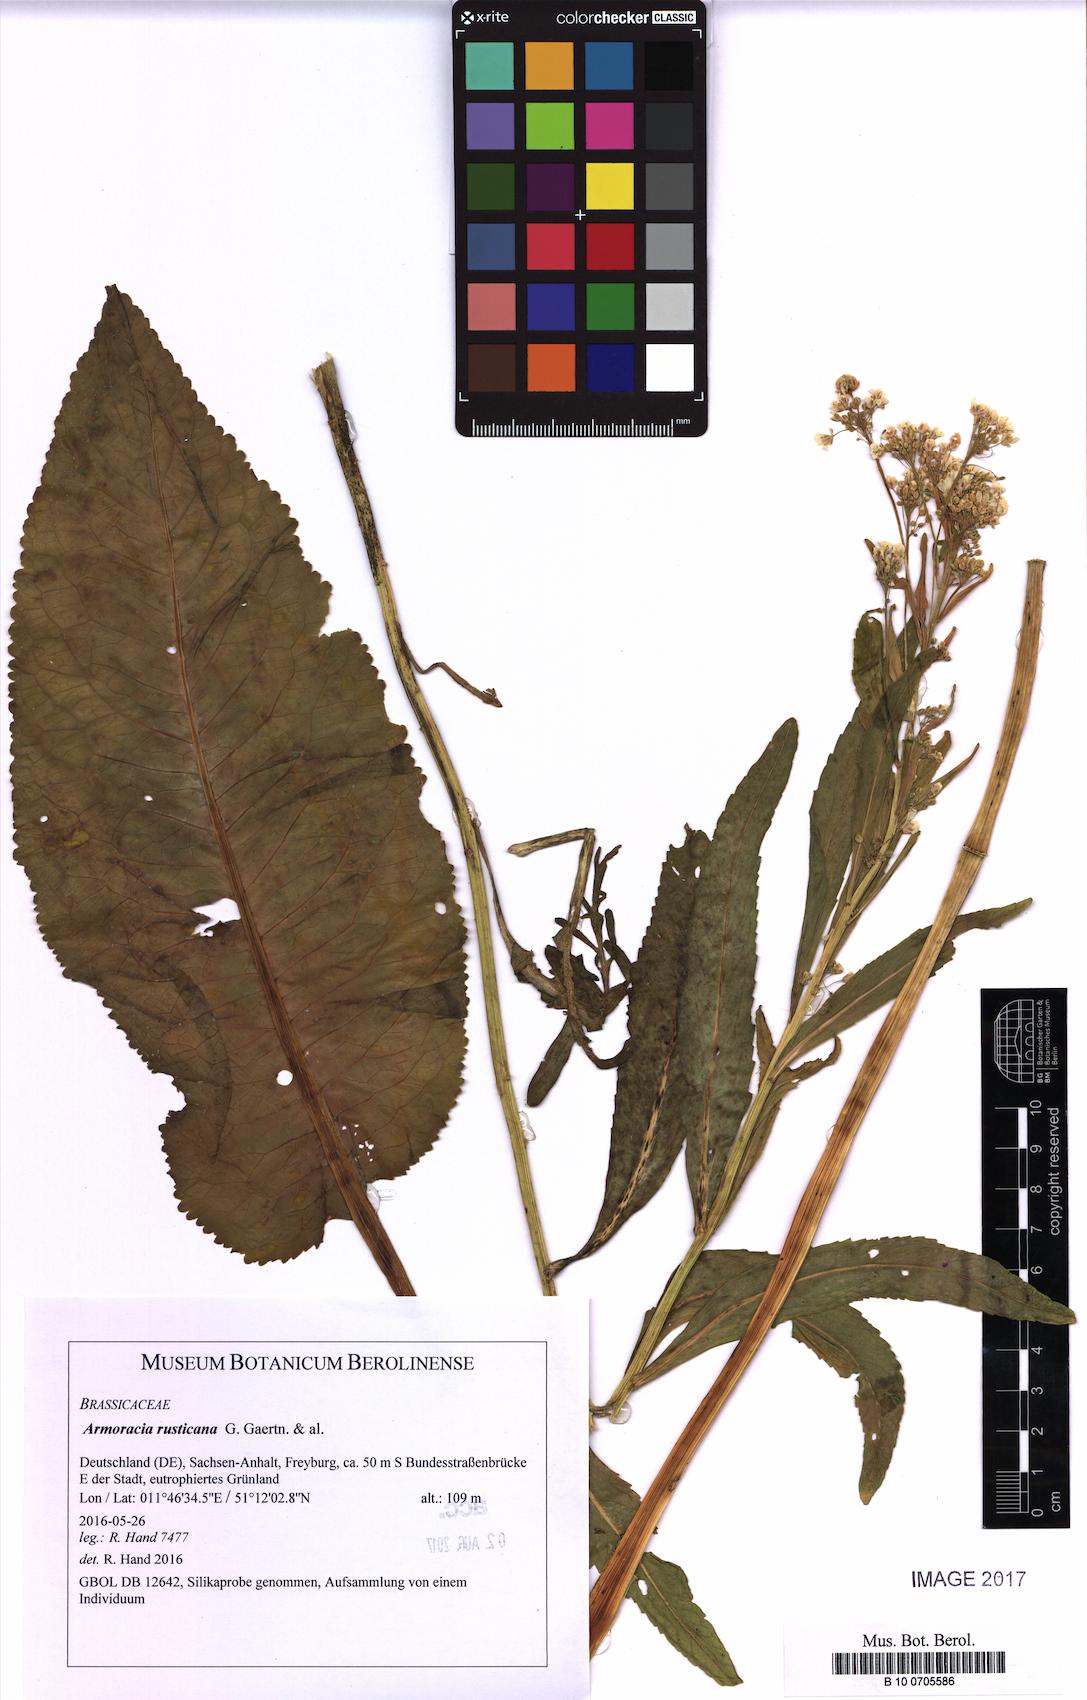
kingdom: Plantae
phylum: Tracheophyta
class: Magnoliopsida
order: Brassicales
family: Brassicaceae
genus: Armoracia
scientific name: Armoracia rusticana
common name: Horseradish
